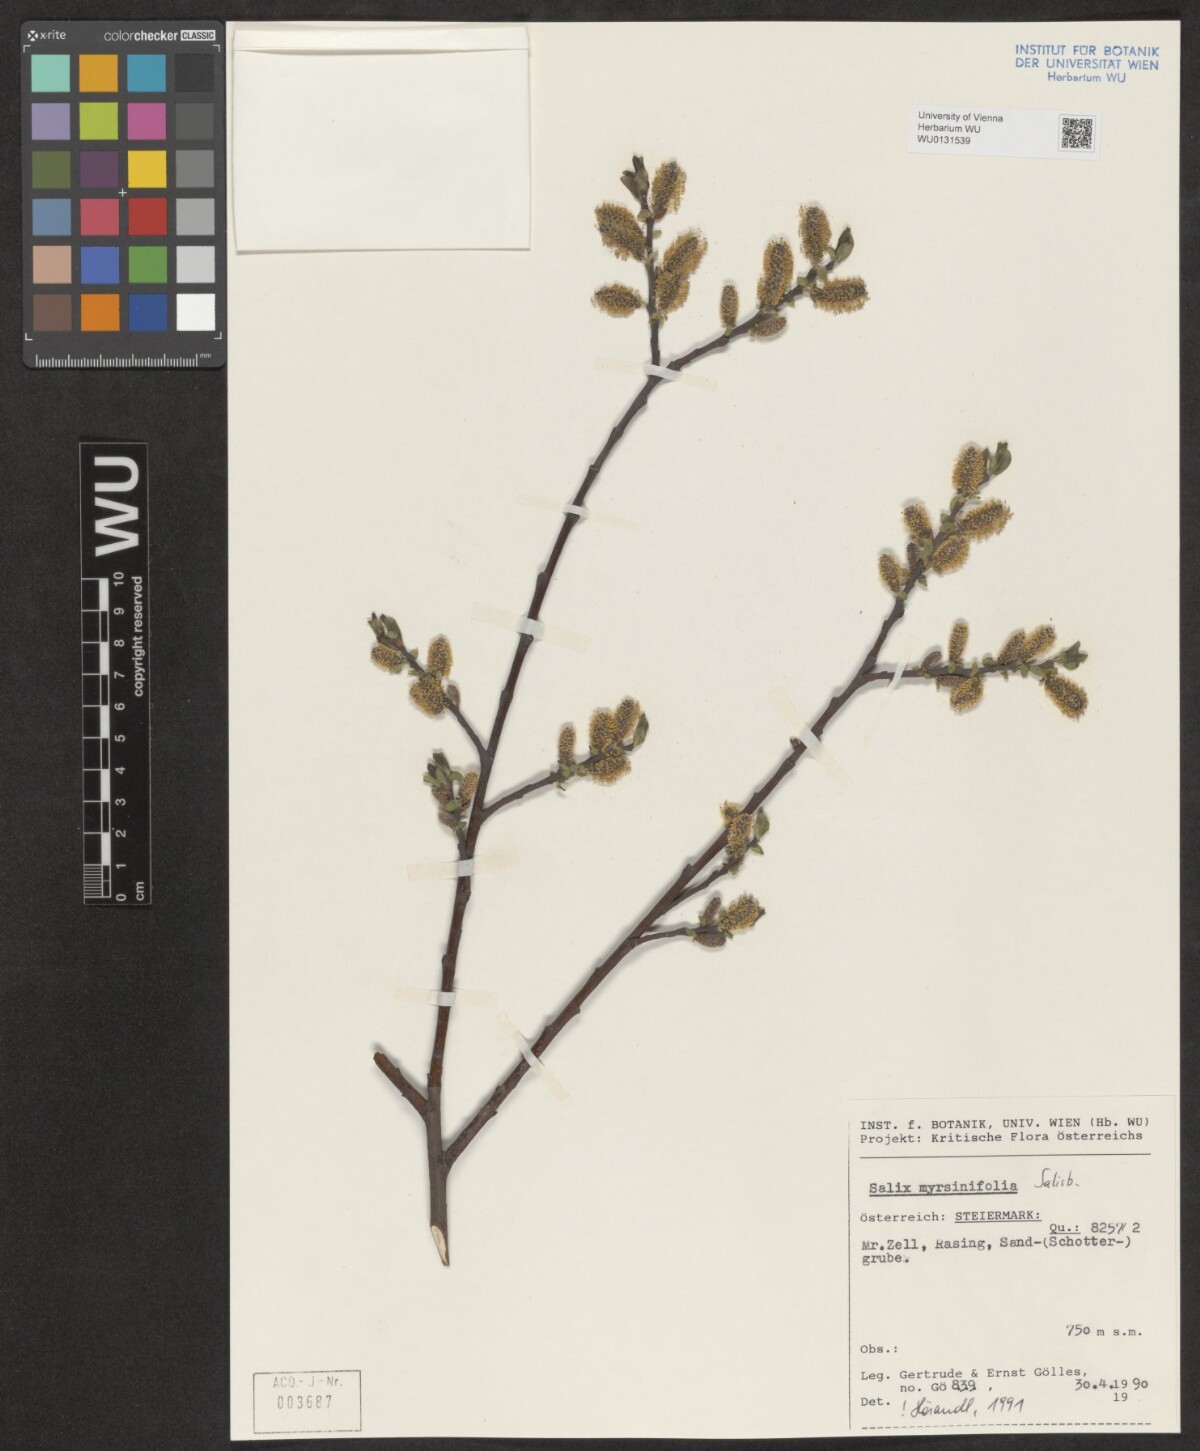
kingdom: Plantae
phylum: Tracheophyta
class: Magnoliopsida
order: Malpighiales
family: Salicaceae
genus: Salix
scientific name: Salix myrsinifolia
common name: Dark-leaved willow
